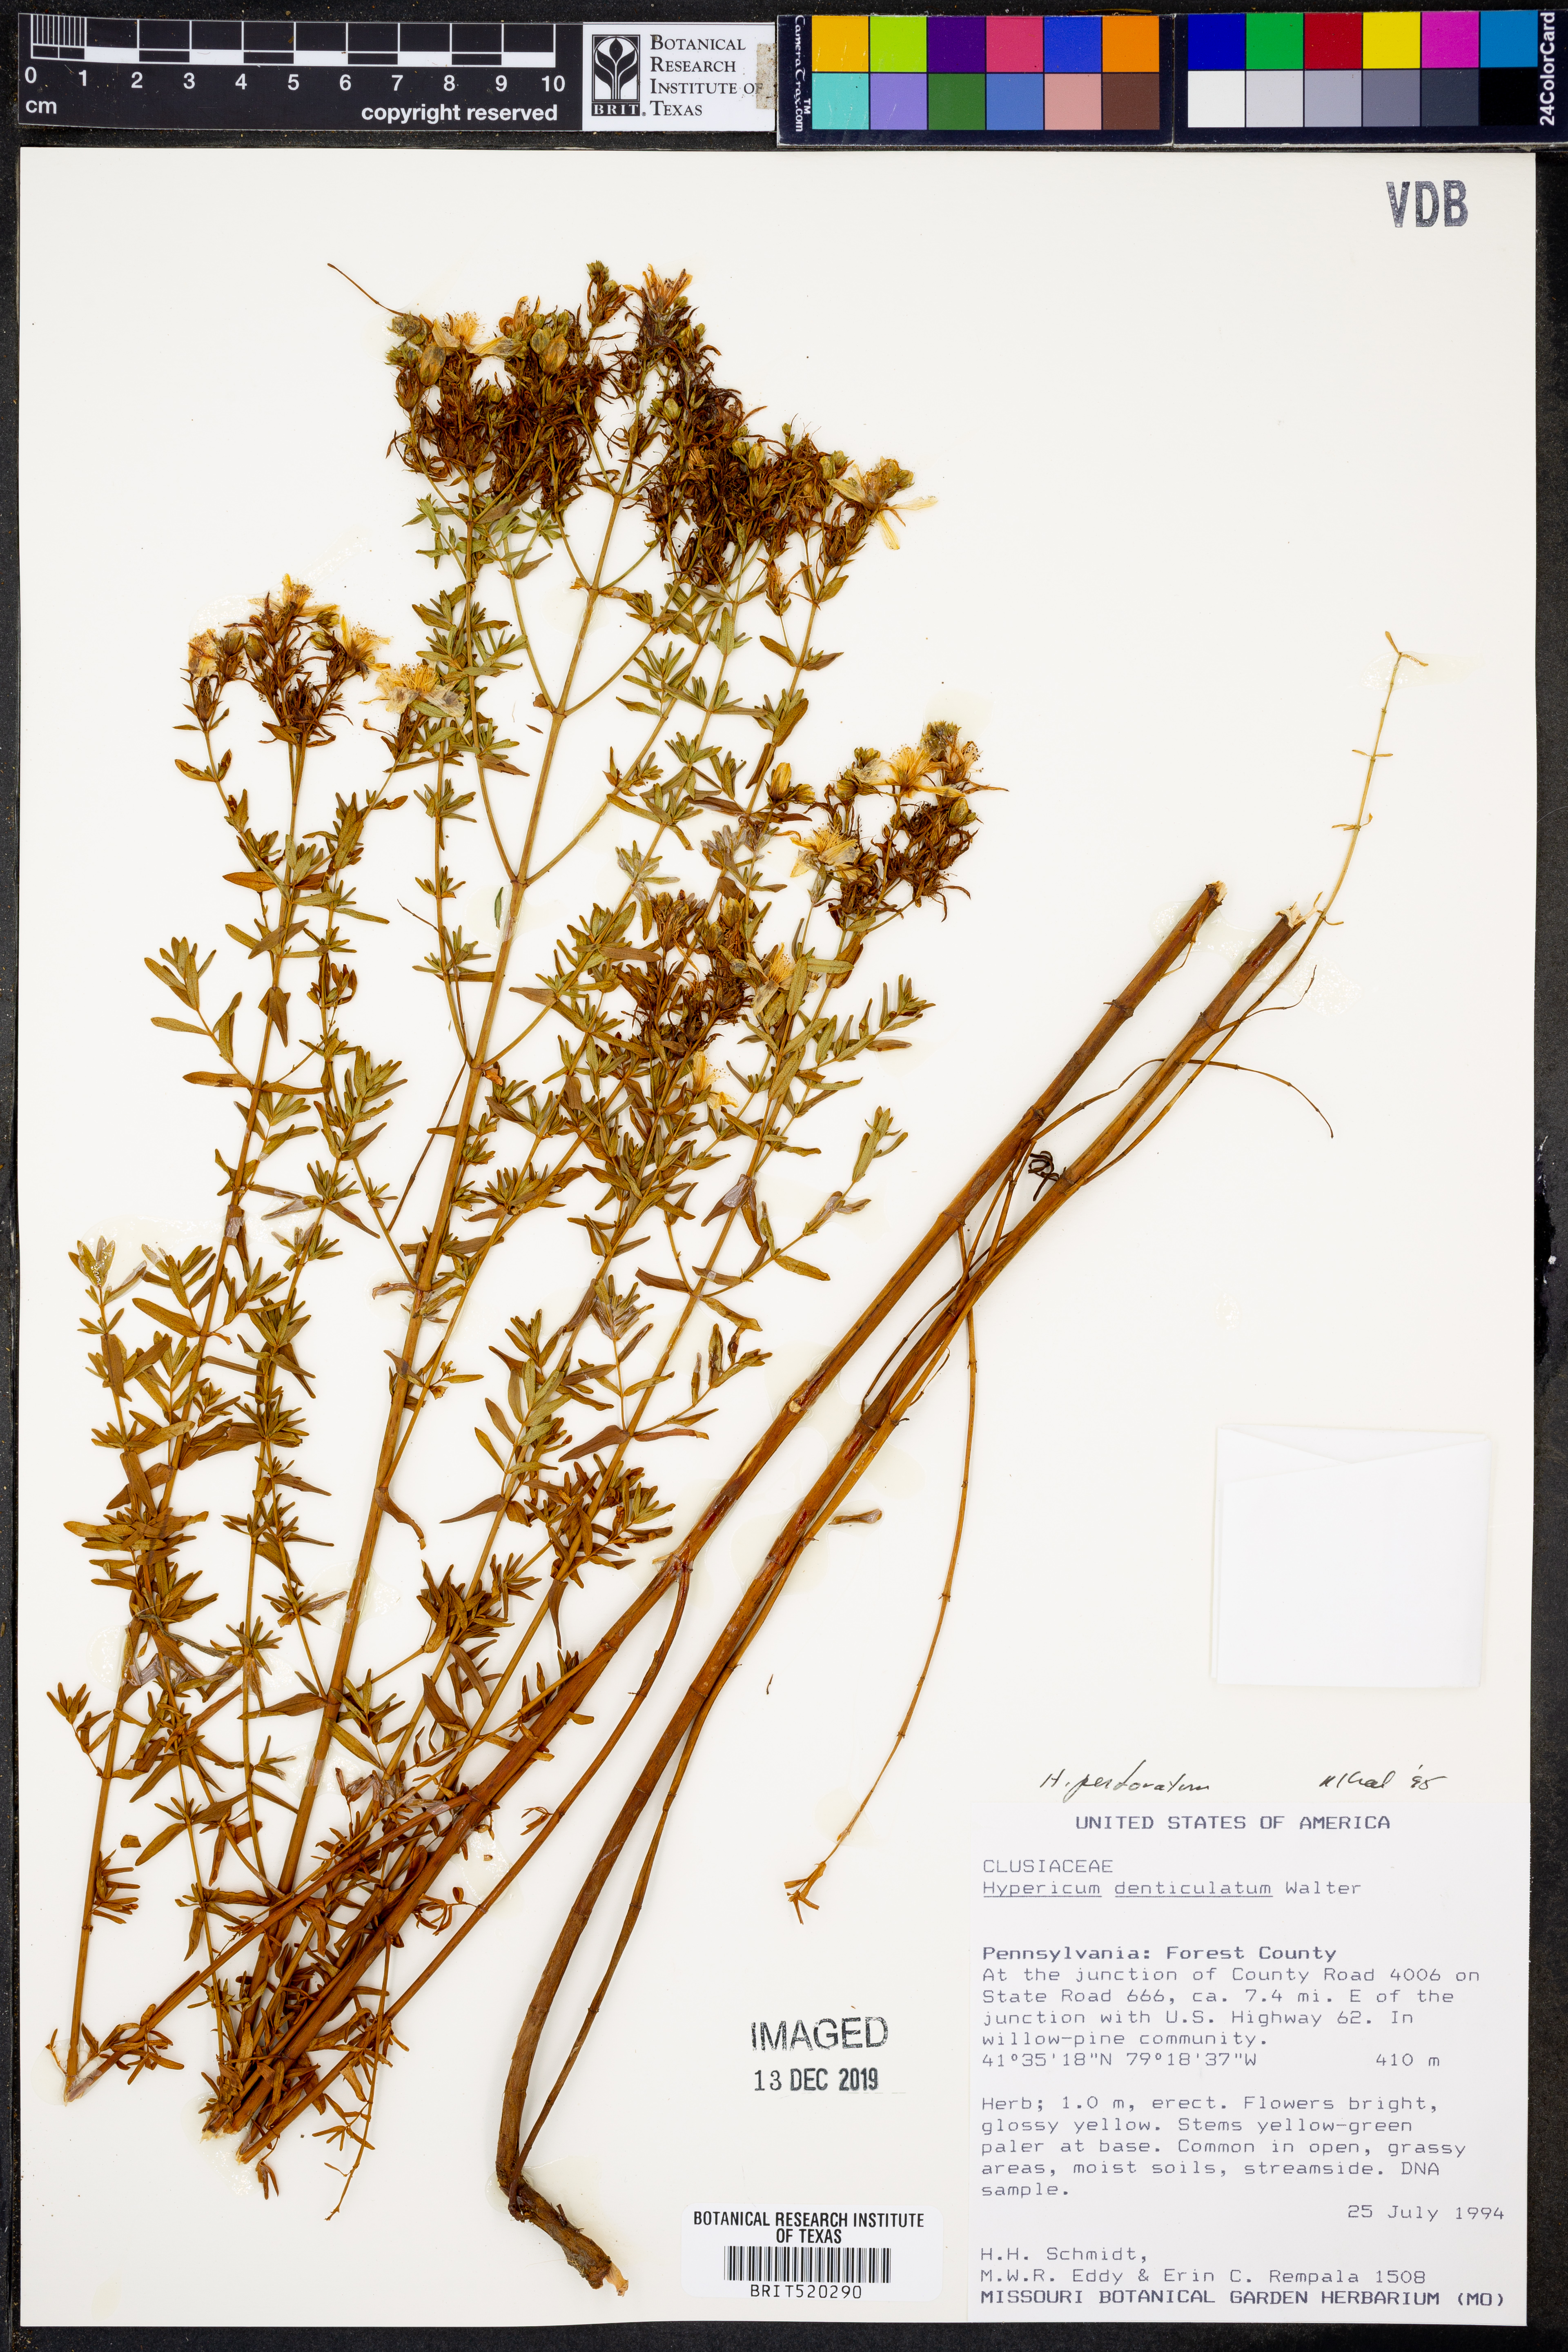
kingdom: Plantae
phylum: Tracheophyta
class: Magnoliopsida
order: Malpighiales
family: Hypericaceae
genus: Hypericum
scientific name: Hypericum perforatum
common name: Common st. johnswort
